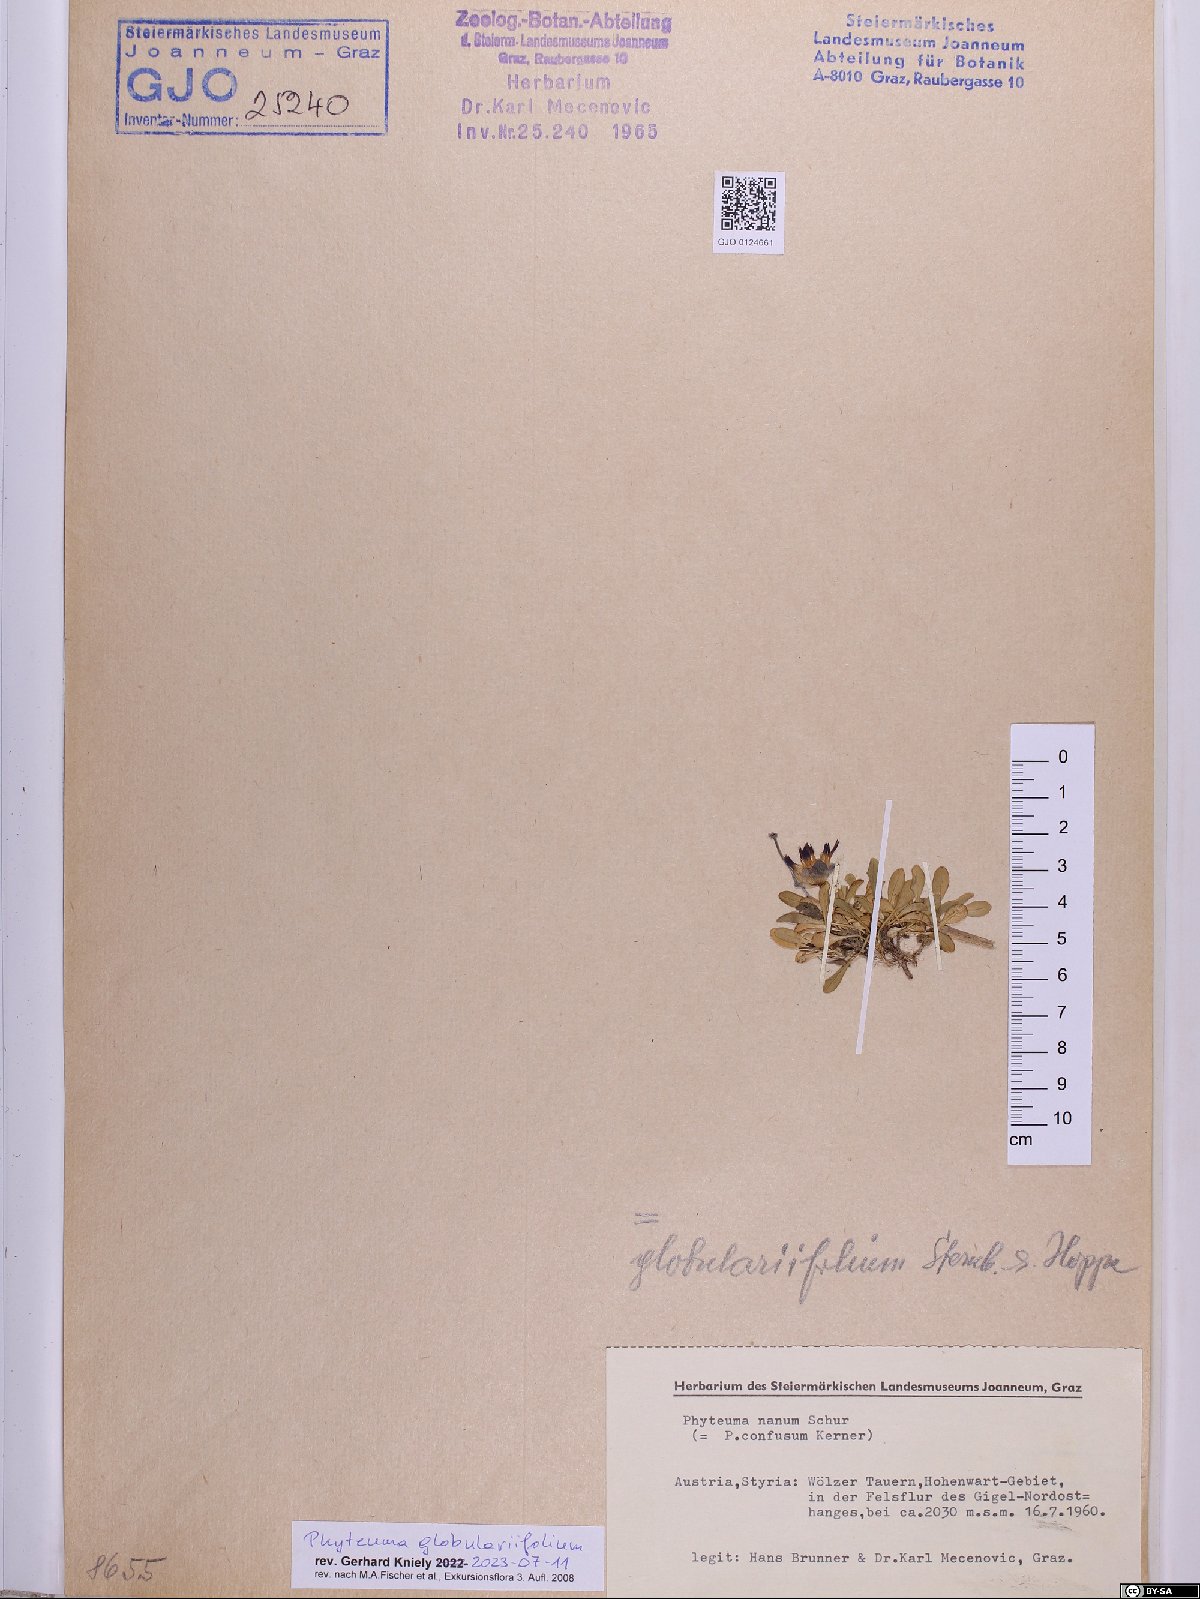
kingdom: Plantae
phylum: Tracheophyta
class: Magnoliopsida
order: Asterales
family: Campanulaceae
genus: Phyteuma
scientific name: Phyteuma globulariifolium
